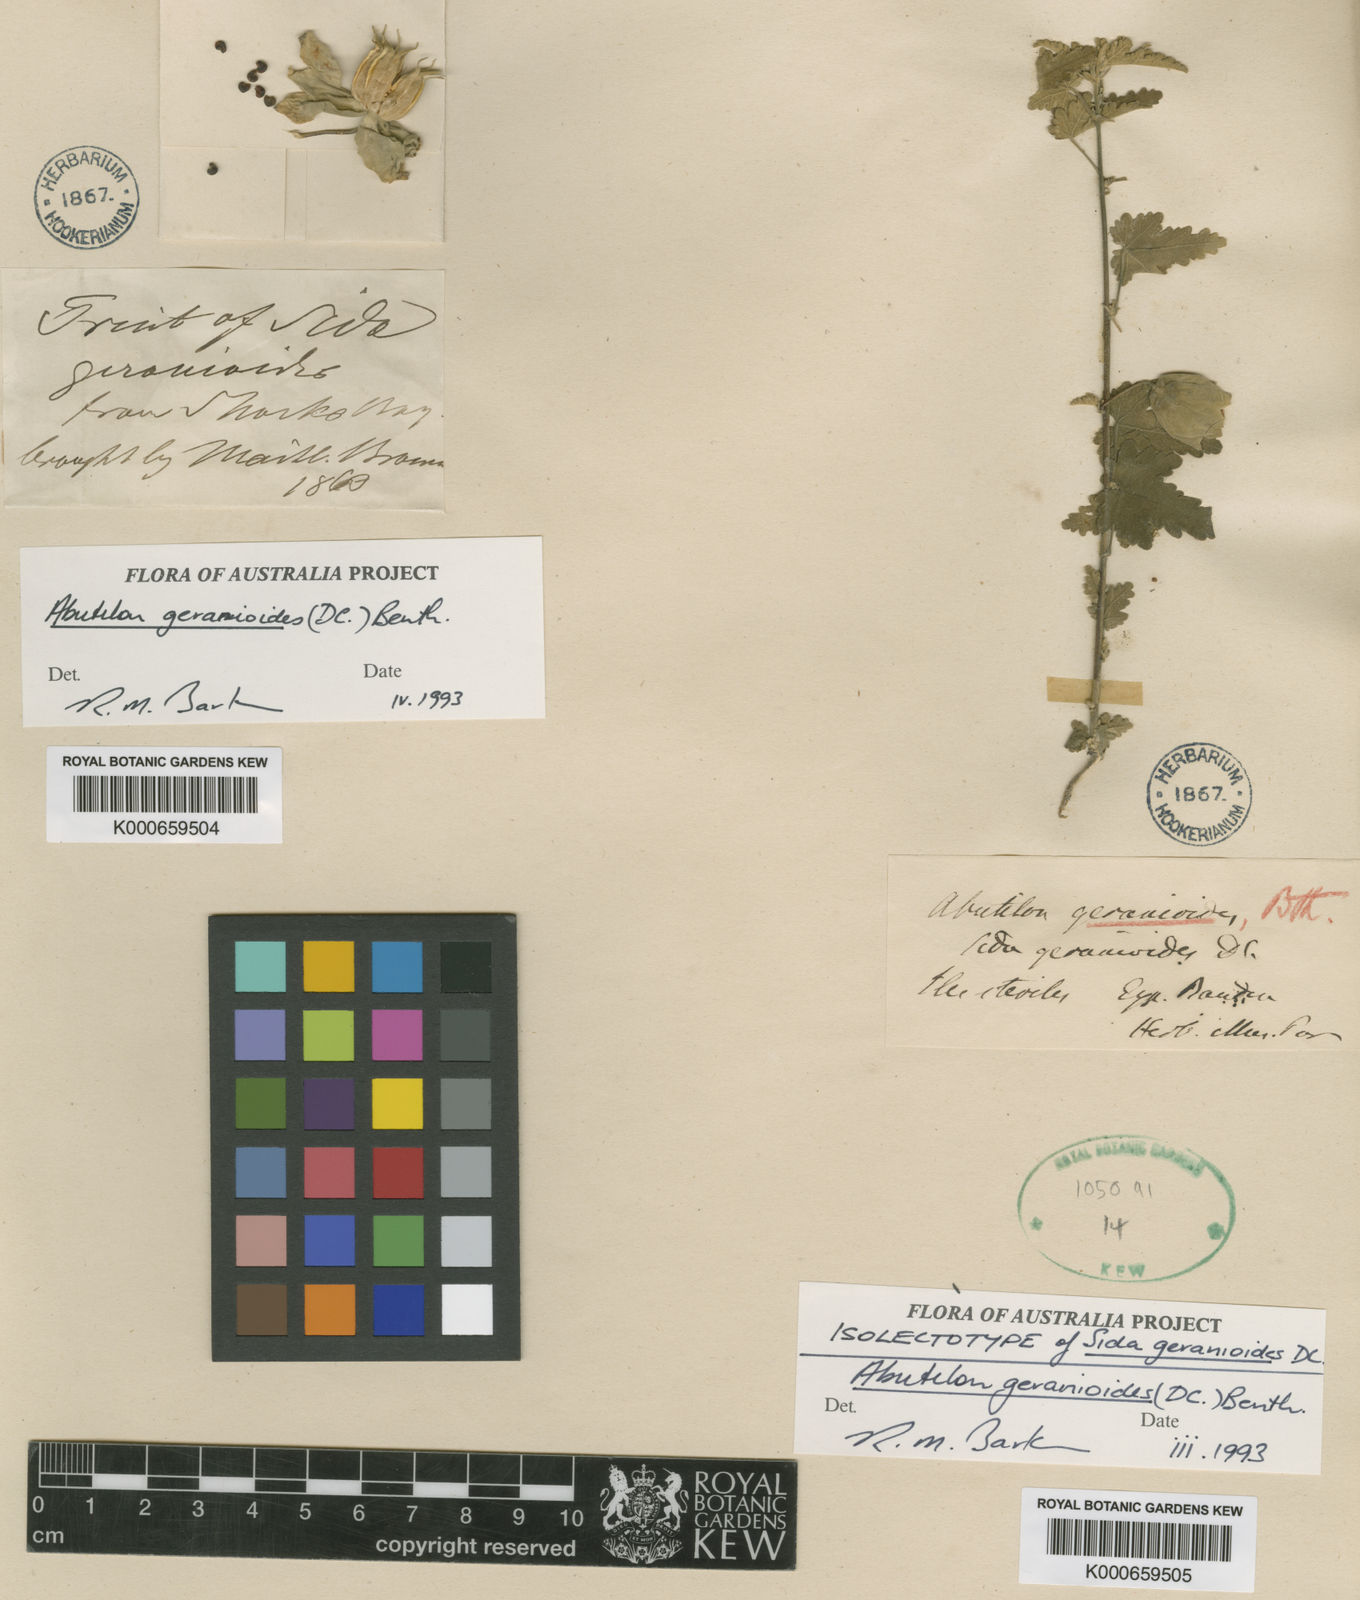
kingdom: Plantae
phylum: Tracheophyta
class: Magnoliopsida
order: Malvales
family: Malvaceae
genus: Abutilon
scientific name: Abutilon geranioides
